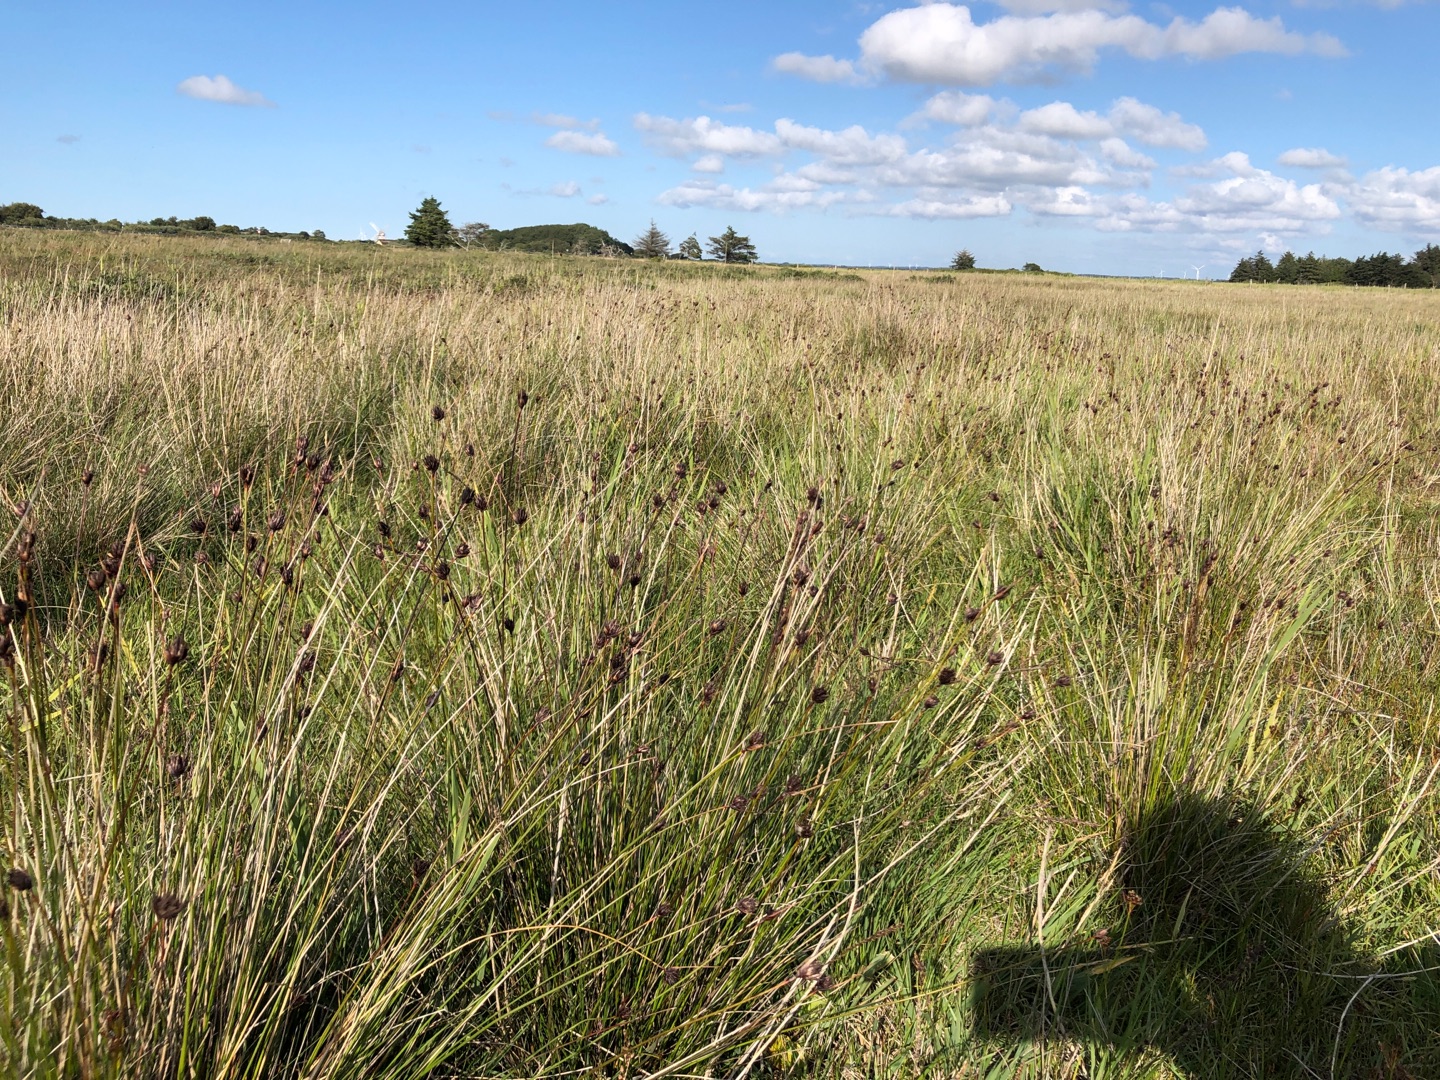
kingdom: Plantae
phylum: Tracheophyta
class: Liliopsida
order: Poales
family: Cyperaceae
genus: Schoenus
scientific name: Schoenus nigricans
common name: Sort skæne
